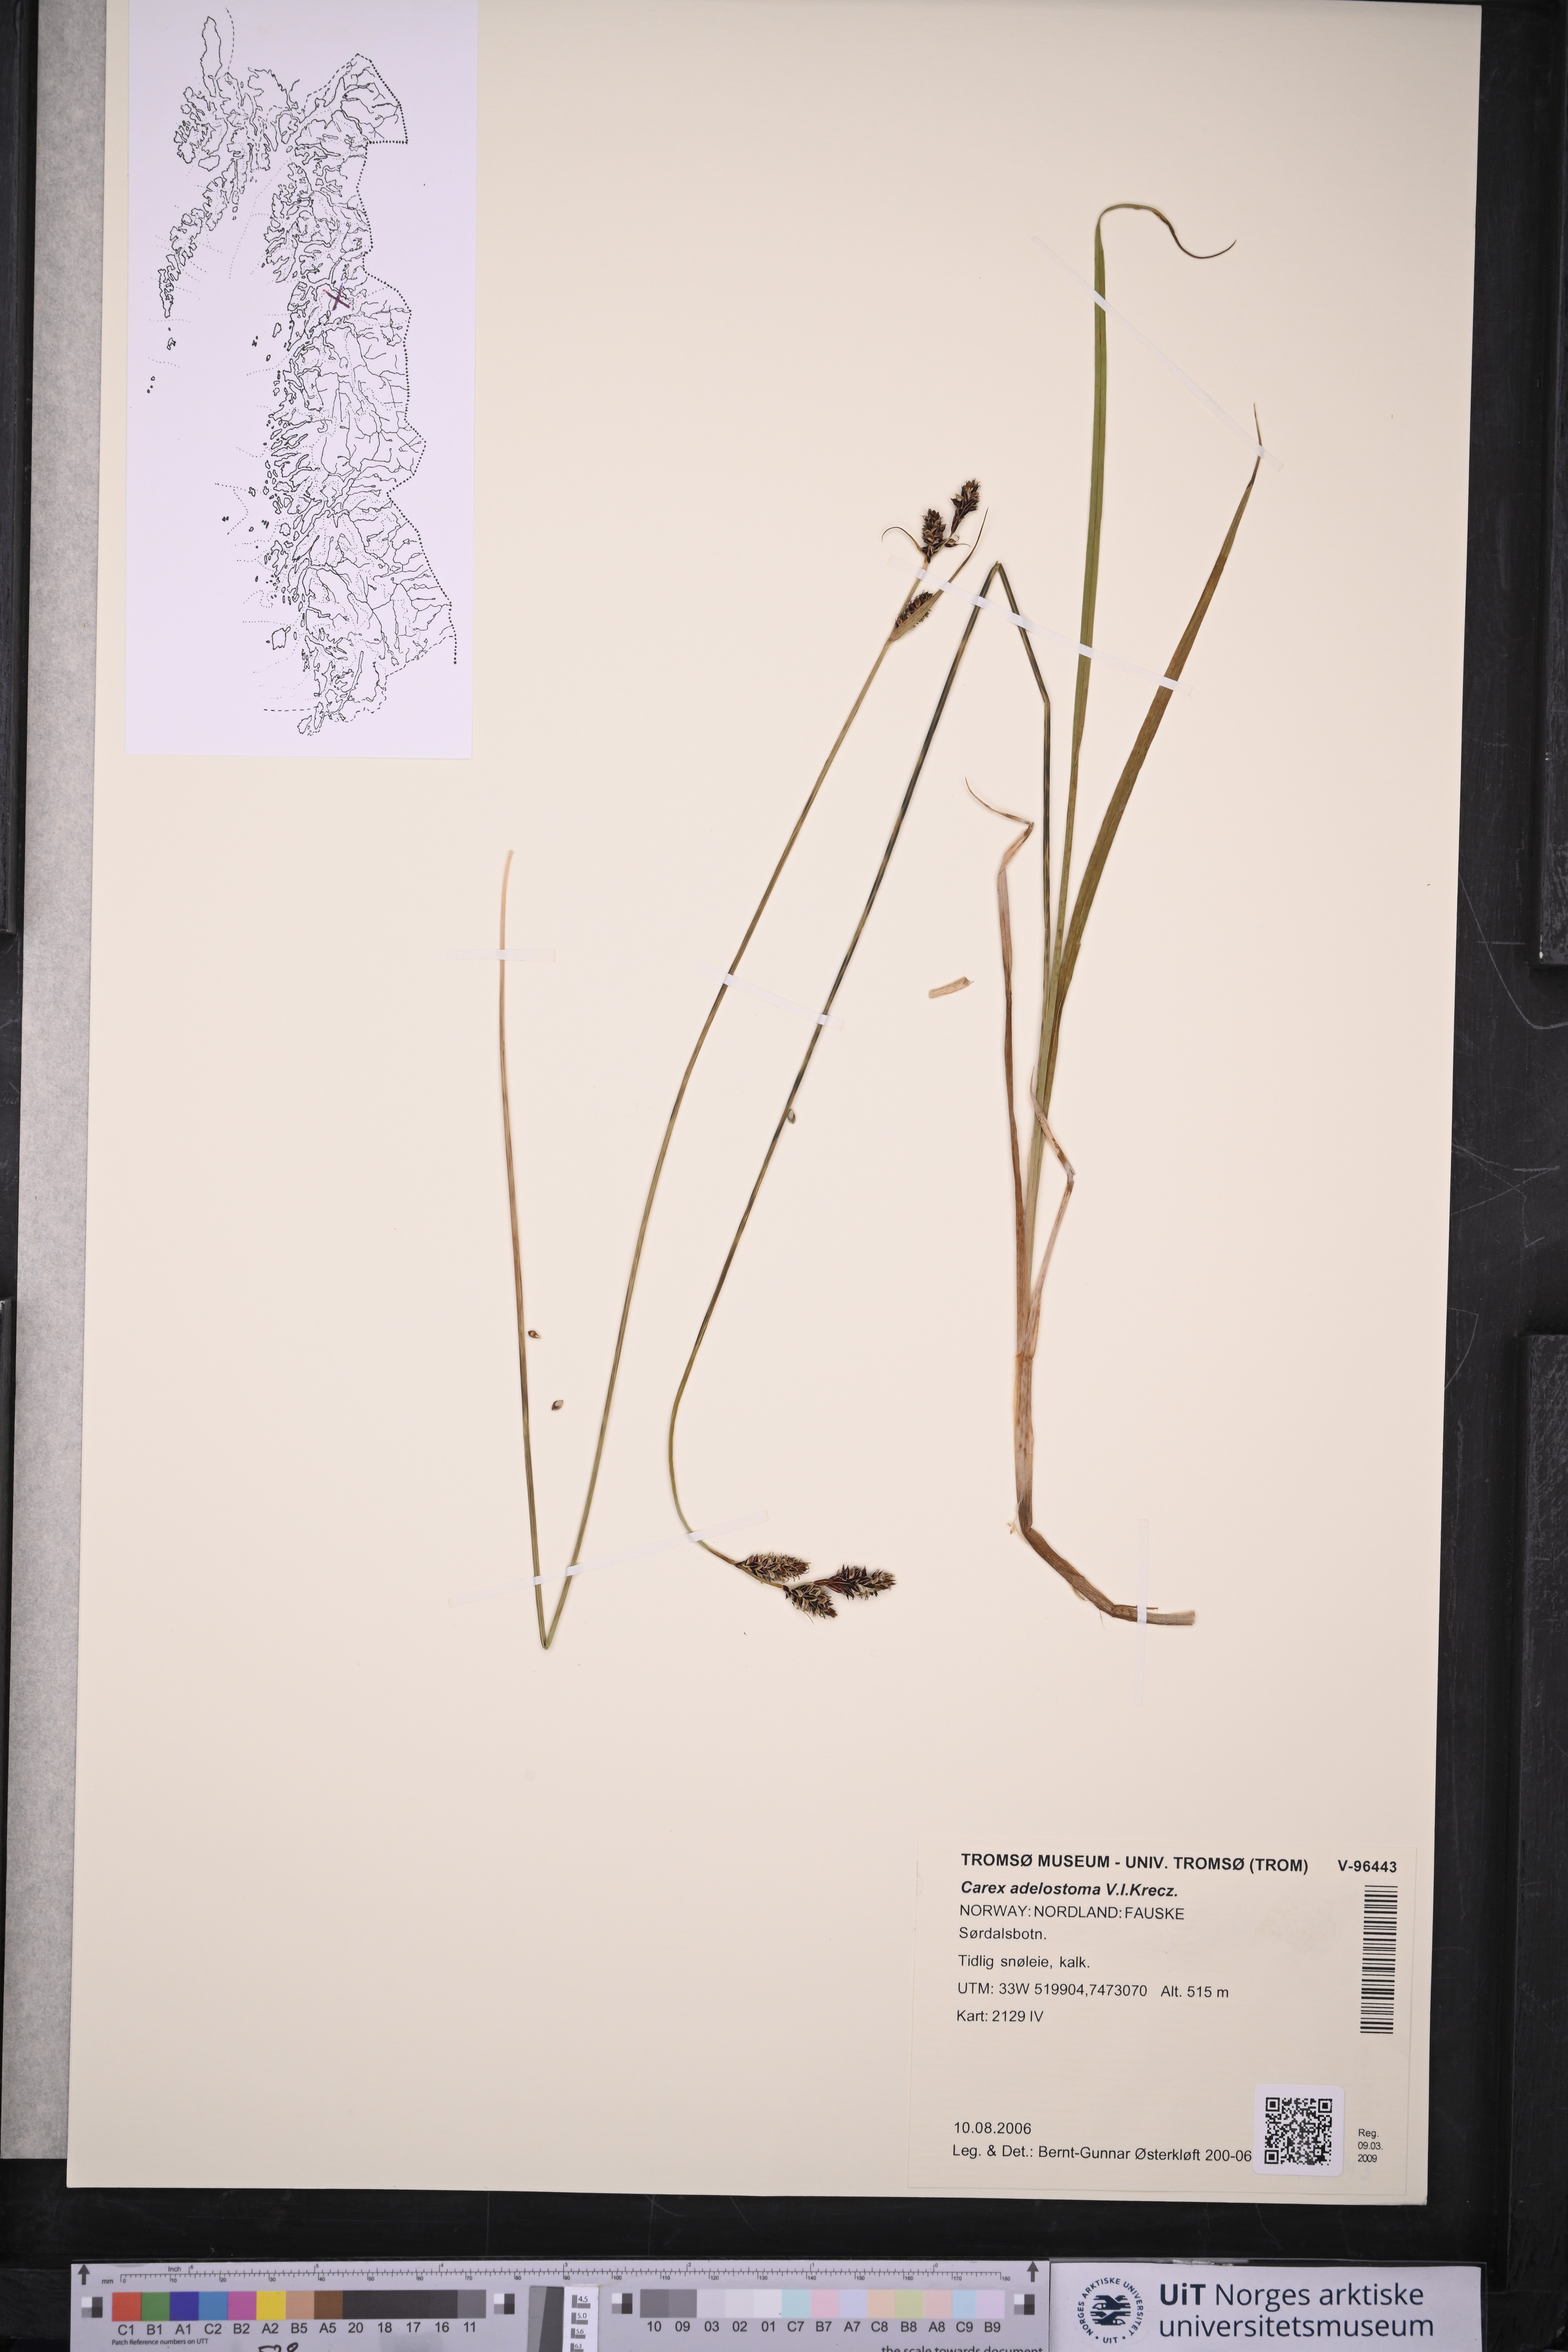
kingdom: Plantae
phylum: Tracheophyta
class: Liliopsida
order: Poales
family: Cyperaceae
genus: Carex
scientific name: Carex adelostoma
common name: Circumpolar sedge
